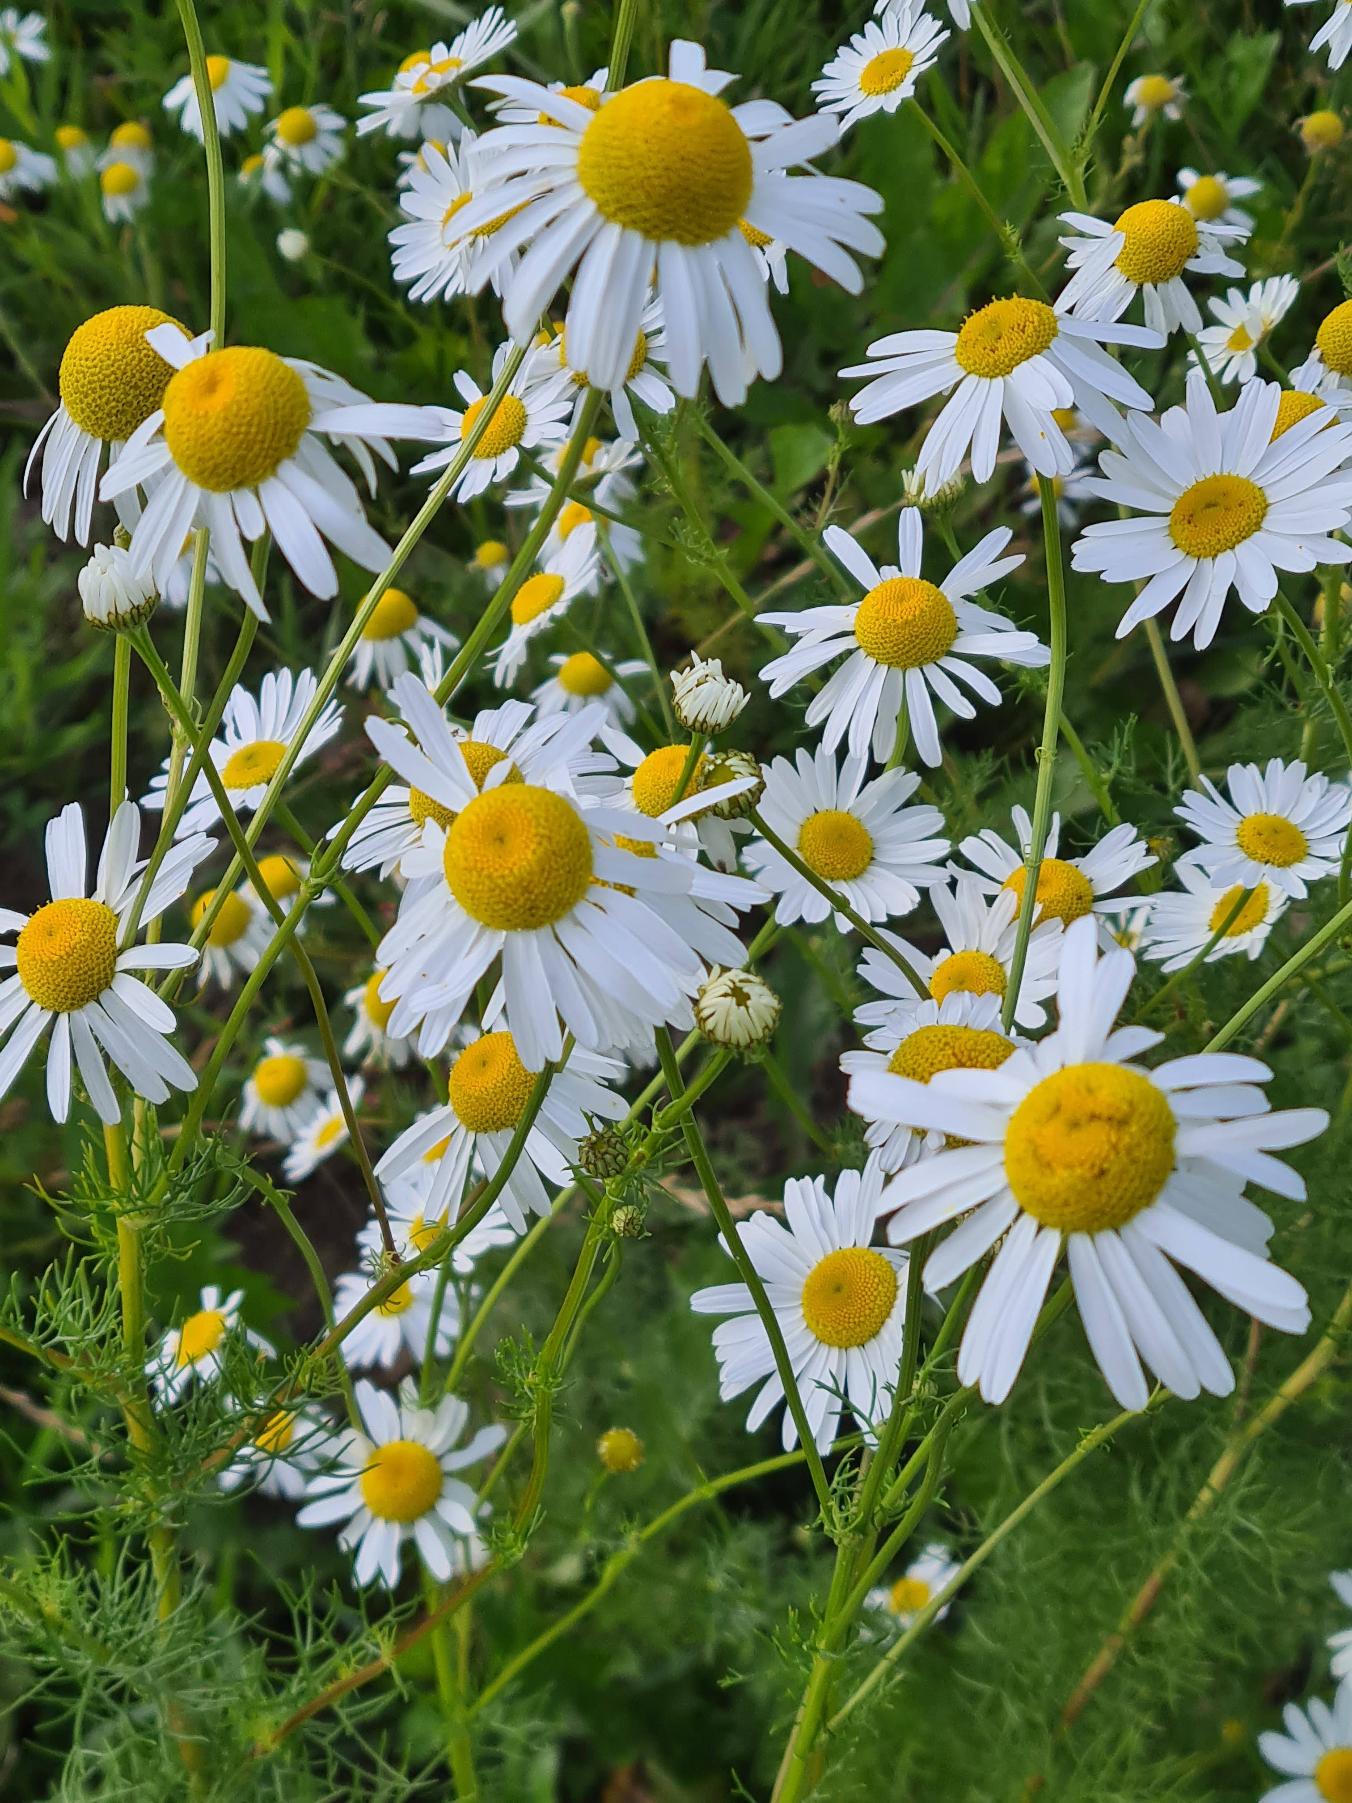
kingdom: Plantae
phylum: Tracheophyta
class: Magnoliopsida
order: Asterales
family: Asteraceae
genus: Tripleurospermum
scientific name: Tripleurospermum inodorum
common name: Lugtløs kamille
